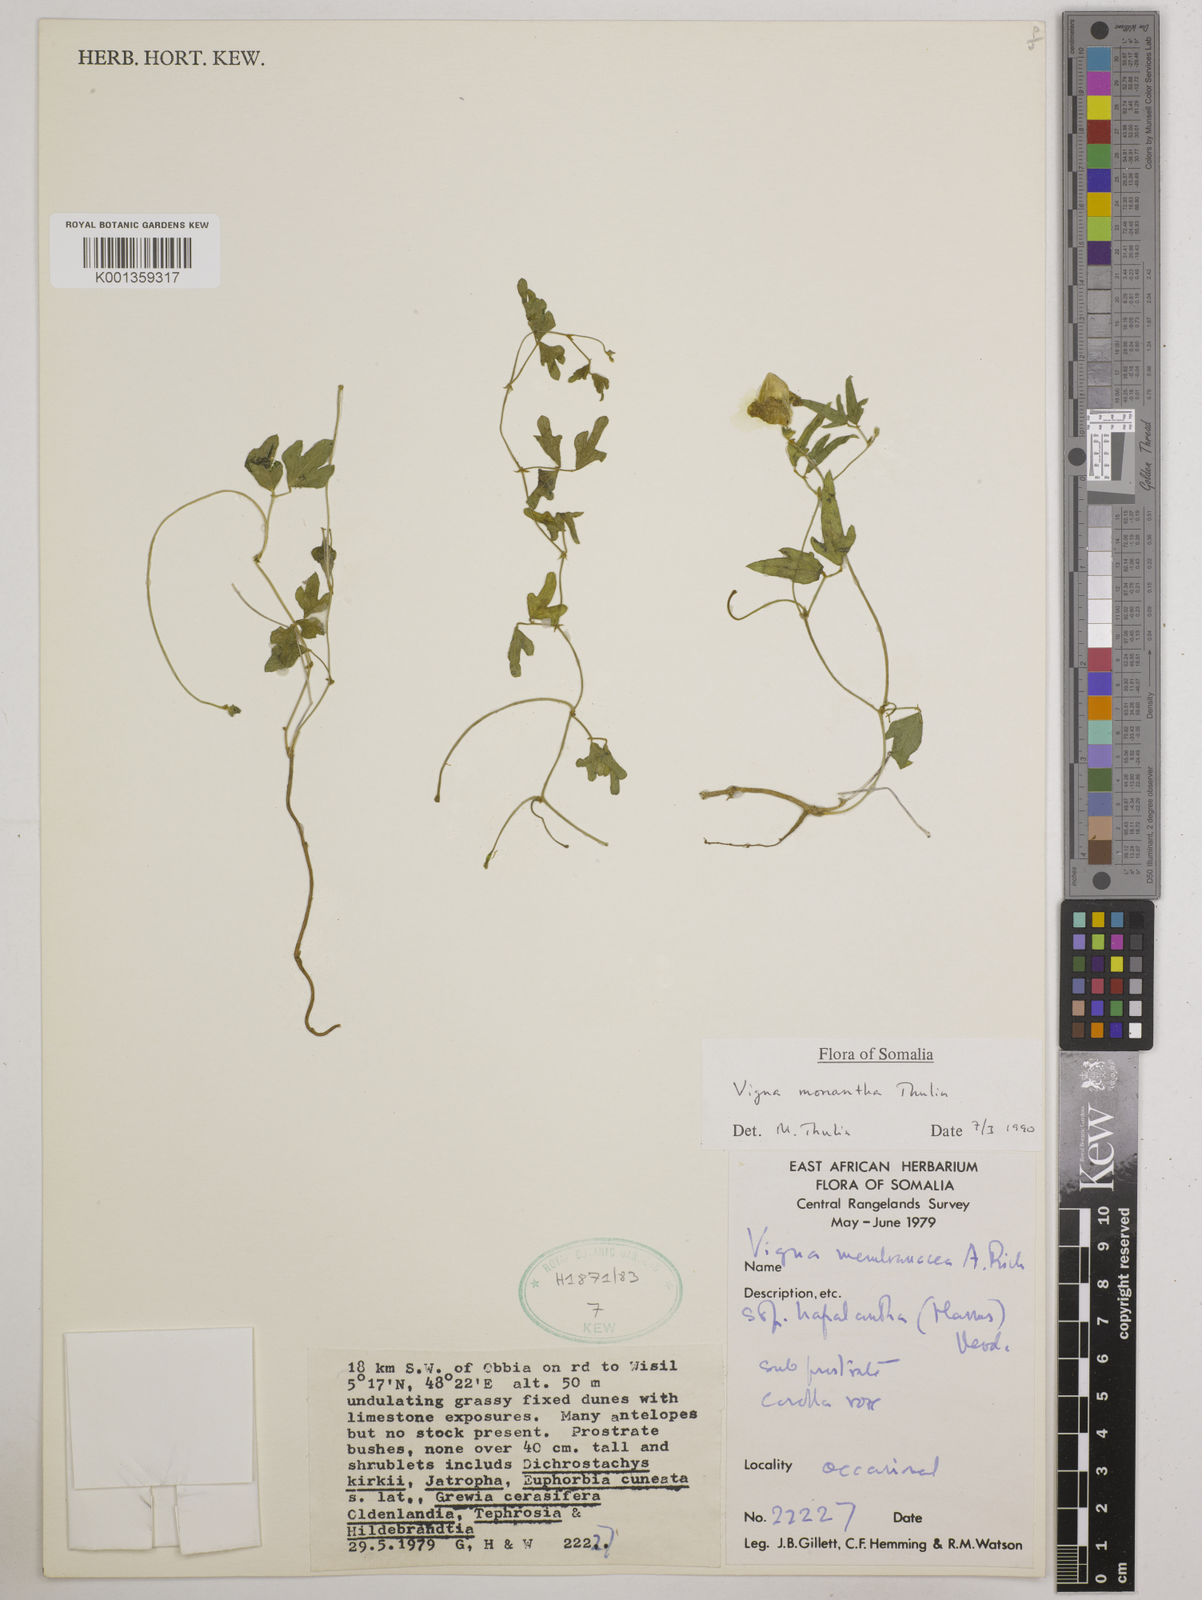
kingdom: Plantae
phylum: Tracheophyta
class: Magnoliopsida
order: Fabales
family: Fabaceae
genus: Vigna
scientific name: Vigna monantha
